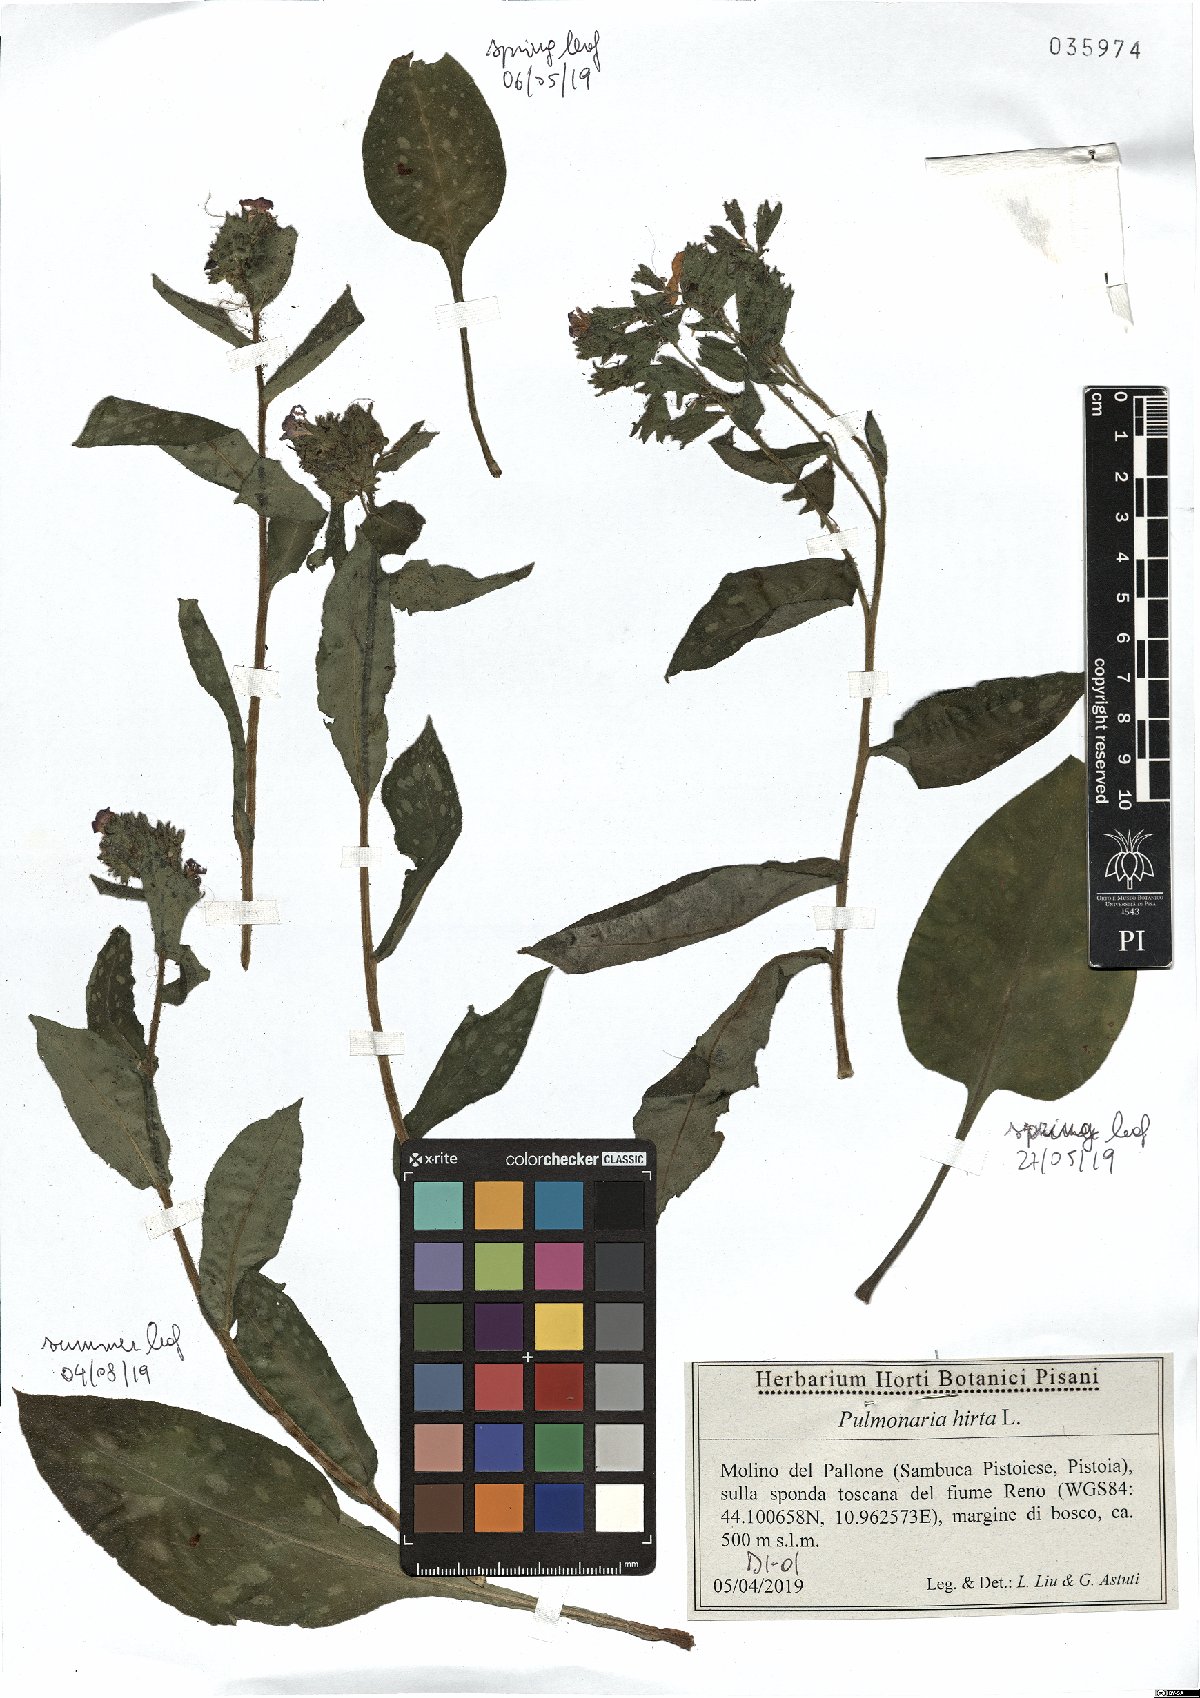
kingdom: Plantae
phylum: Tracheophyta
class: Magnoliopsida
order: Boraginales
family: Boraginaceae
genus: Pulmonaria
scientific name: Pulmonaria hirta
